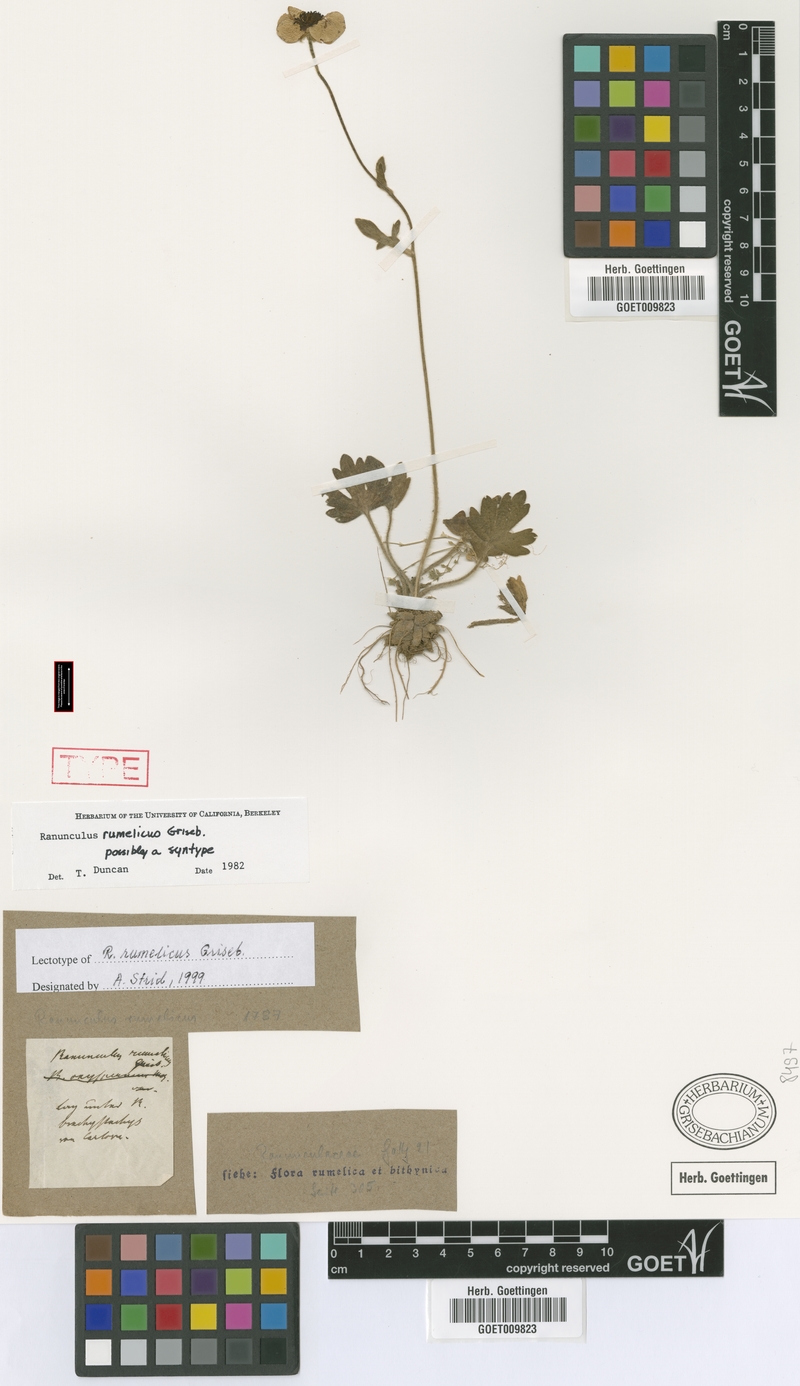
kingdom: Plantae
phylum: Tracheophyta
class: Magnoliopsida
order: Ranunculales
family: Ranunculaceae
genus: Ranunculus
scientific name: Ranunculus rumelicus
